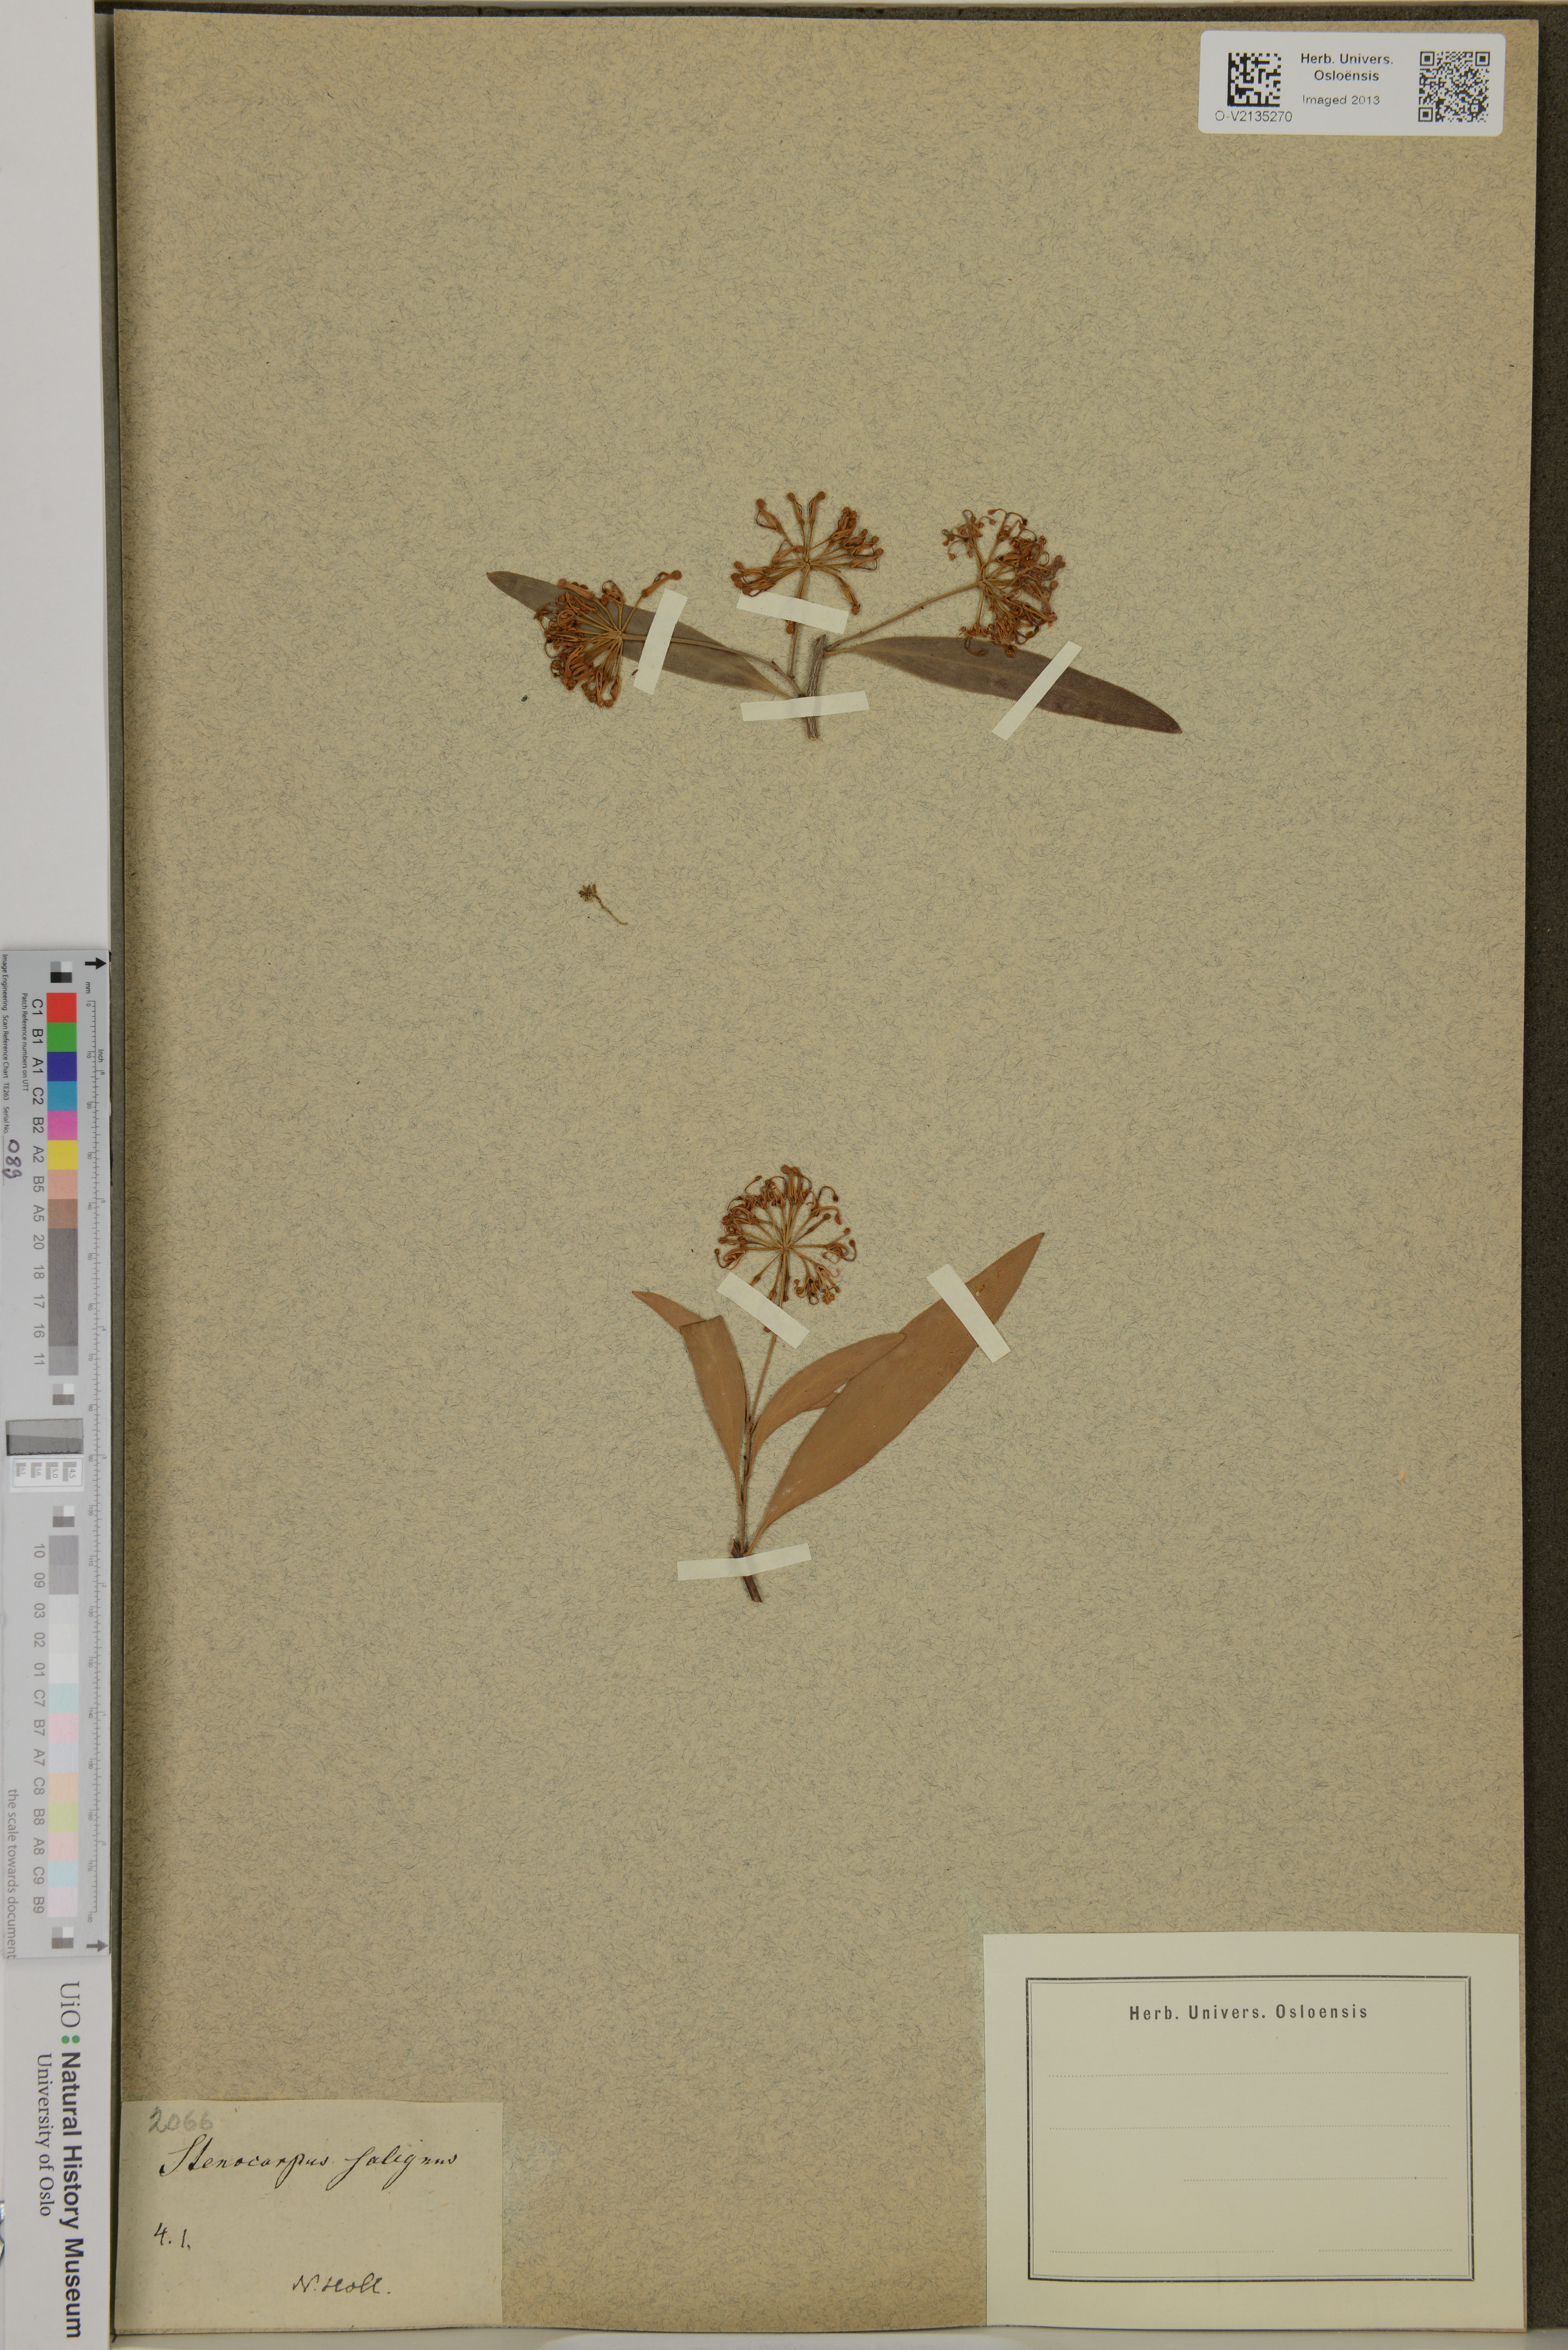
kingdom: Plantae
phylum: Tracheophyta
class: Magnoliopsida
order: Proteales
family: Proteaceae
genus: Stenocarpus
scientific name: Stenocarpus salignus
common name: Red silky-oak
